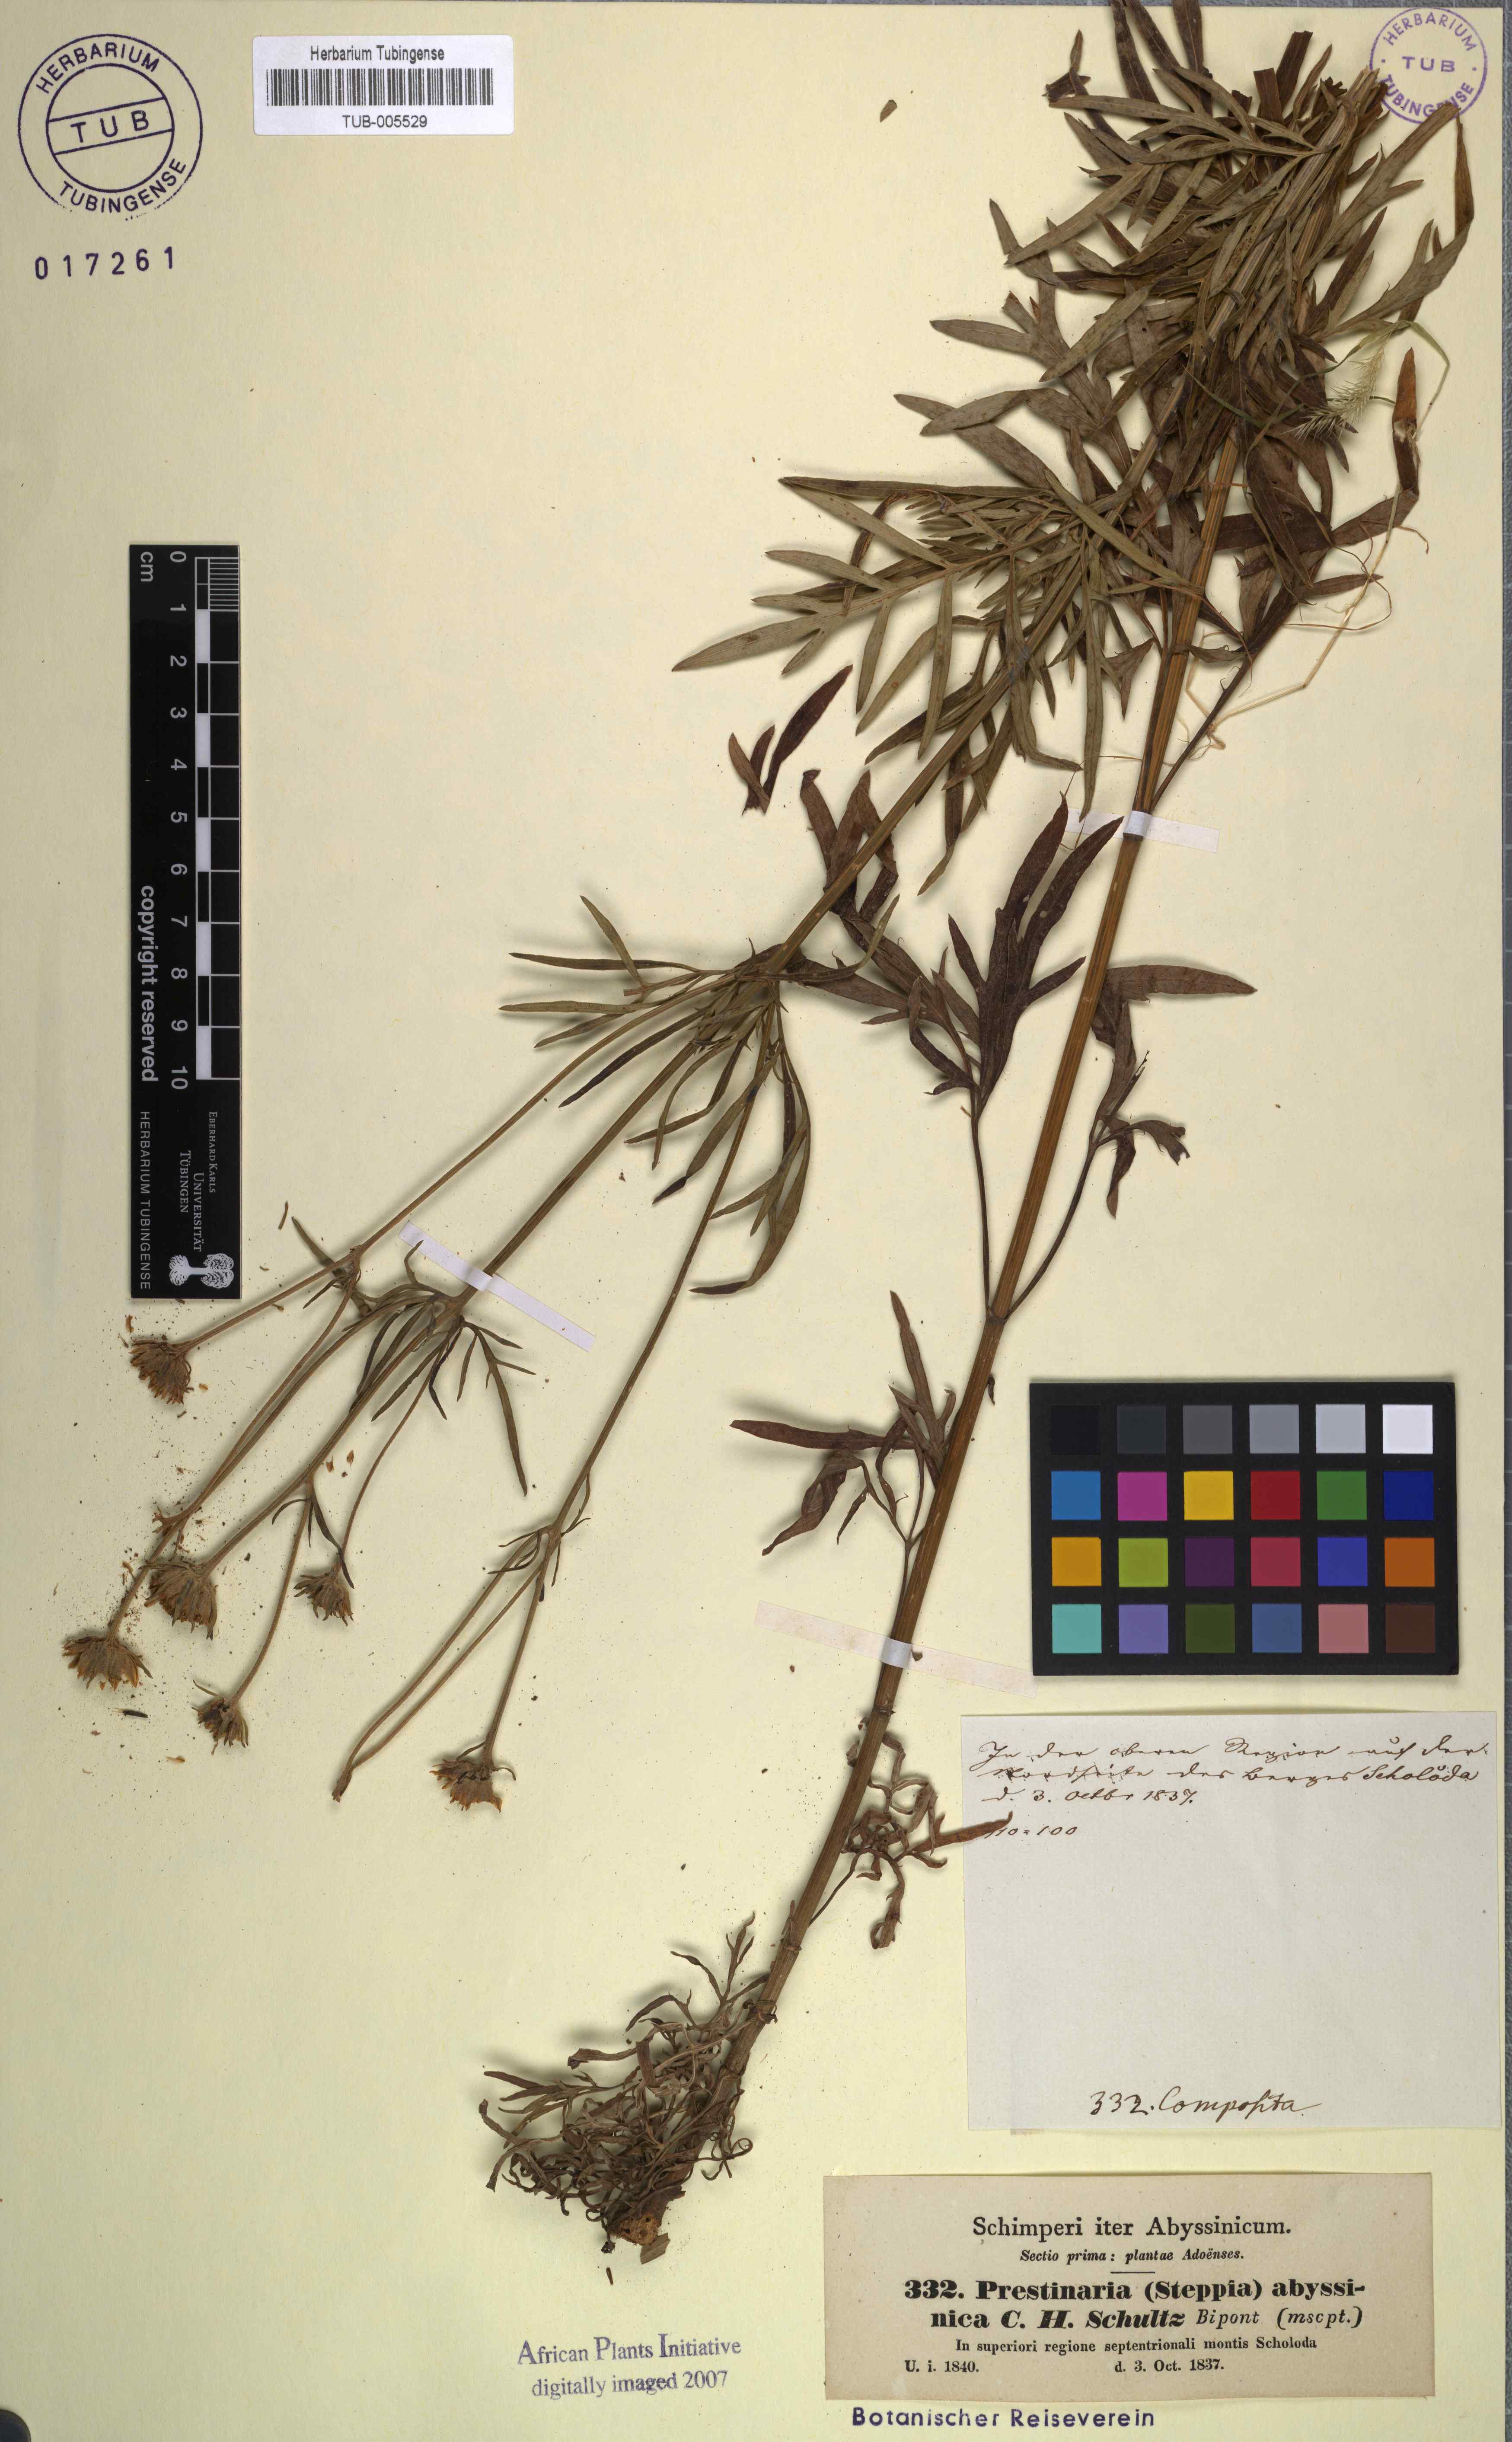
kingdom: Plantae
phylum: Tracheophyta
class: Magnoliopsida
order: Asterales
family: Asteraceae
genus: Bidens
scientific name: Bidens camporum
